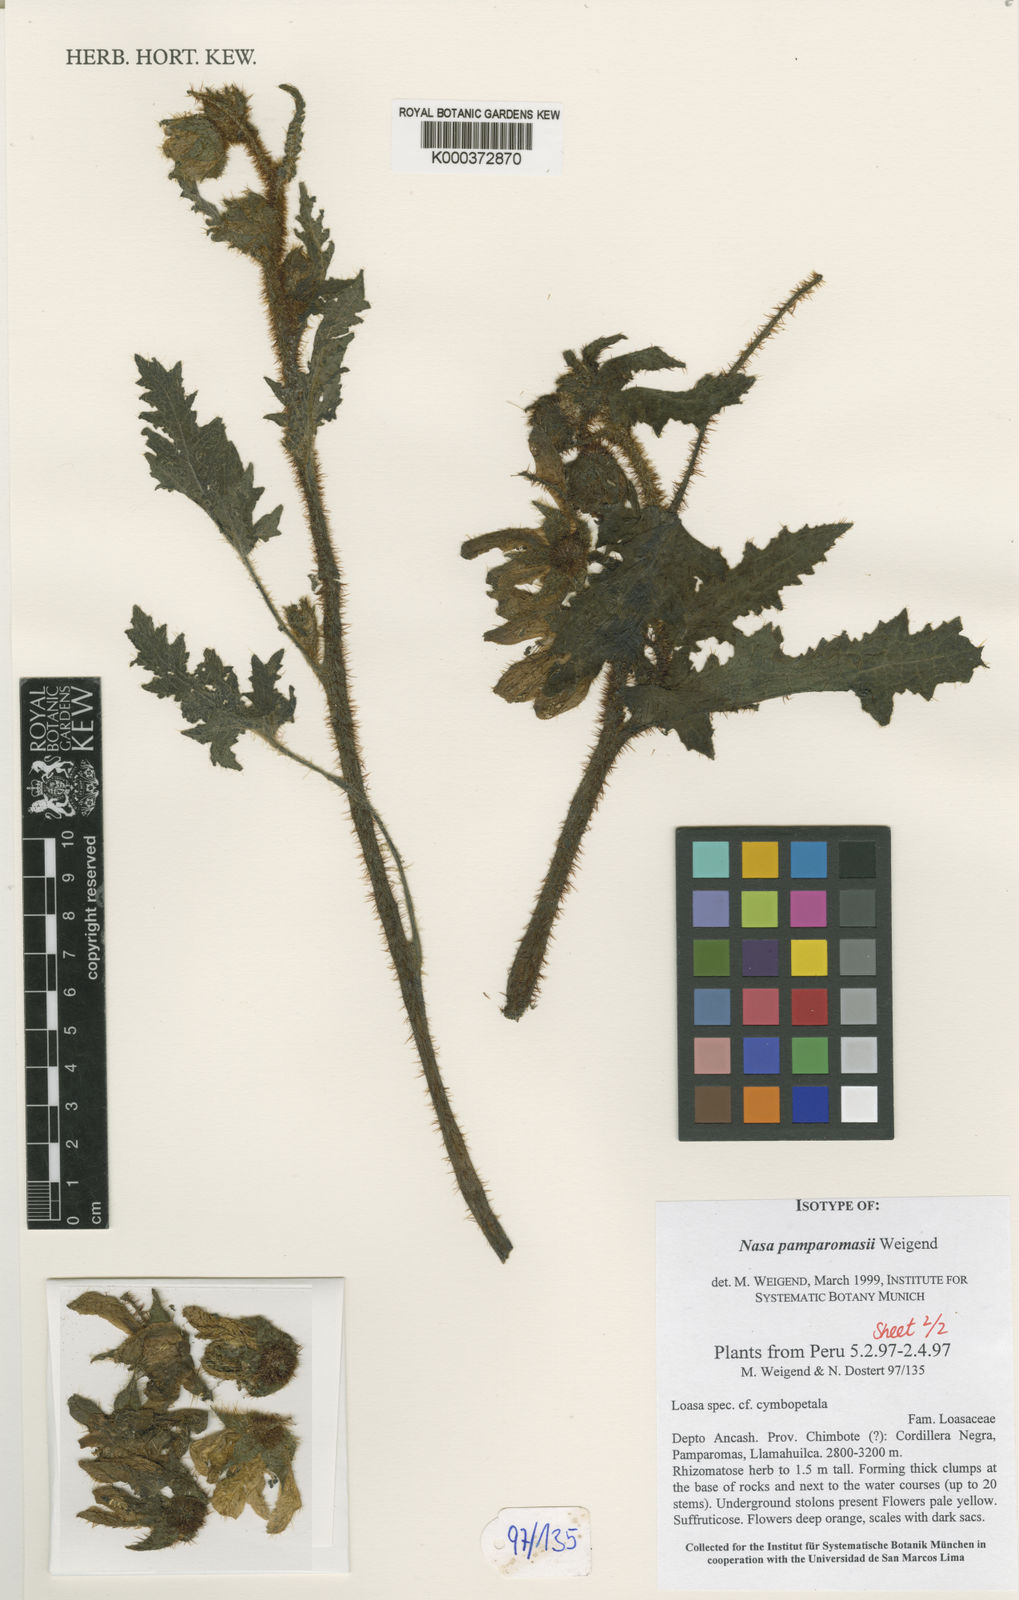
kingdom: Plantae
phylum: Tracheophyta
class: Magnoliopsida
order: Cornales
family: Loasaceae
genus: Nasa
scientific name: Nasa
